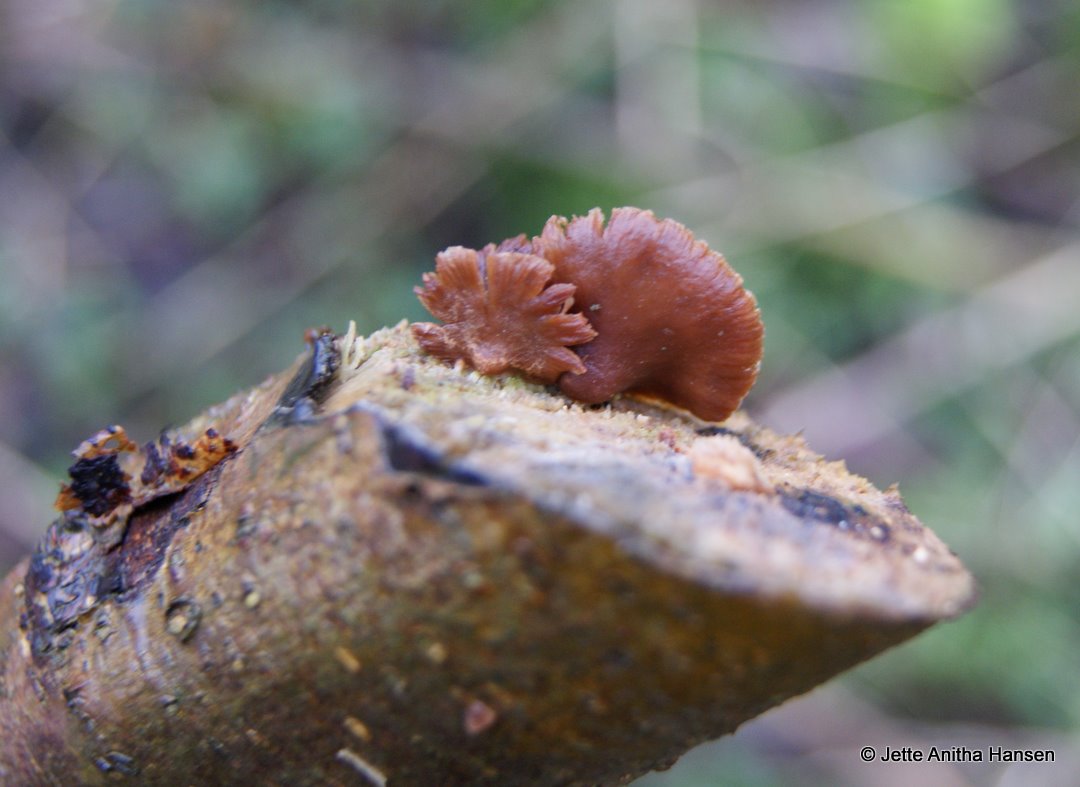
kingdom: Fungi
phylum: Basidiomycota
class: Agaricomycetes
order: Agaricales
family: Strophariaceae
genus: Deconica
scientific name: Deconica horizontalis
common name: ved-stråhat
